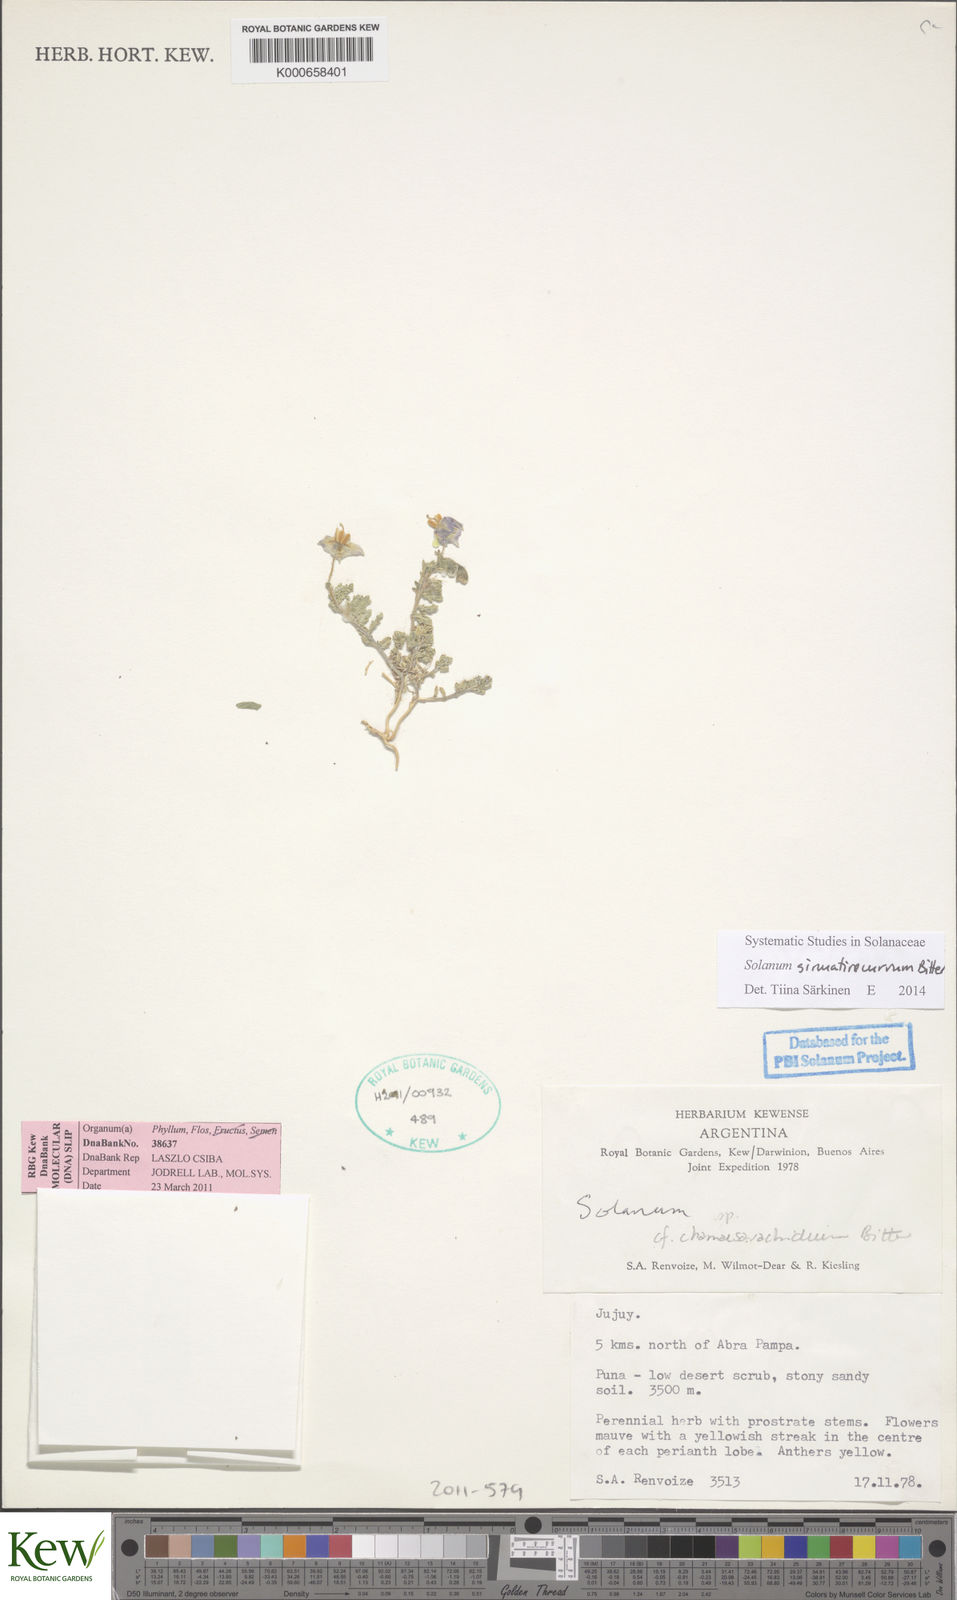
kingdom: Plantae
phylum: Tracheophyta
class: Magnoliopsida
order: Solanales
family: Solanaceae
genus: Solanum
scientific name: Solanum sinuatirecurvum
